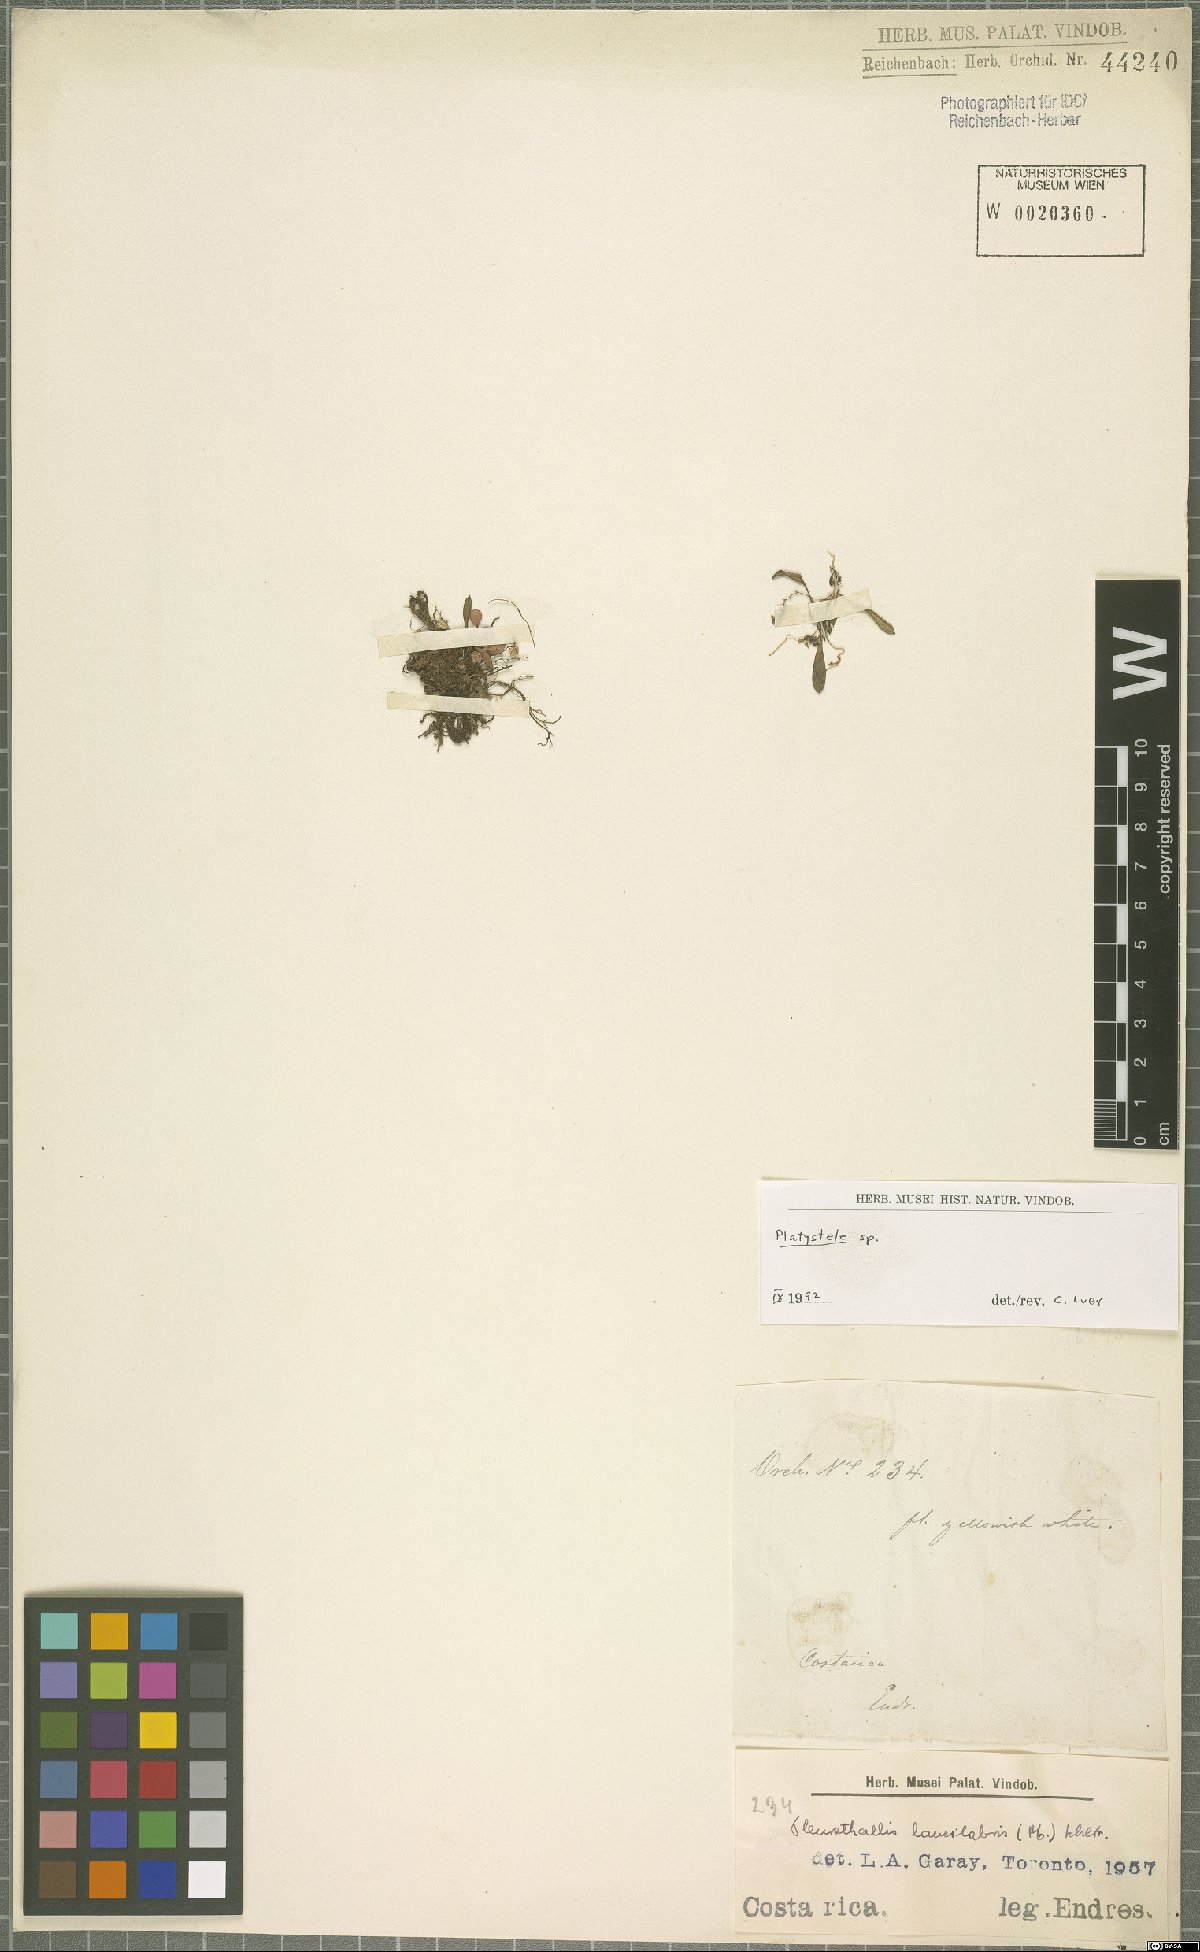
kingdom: Plantae
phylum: Tracheophyta
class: Liliopsida
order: Asparagales
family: Orchidaceae
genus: Platystele
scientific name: Platystele
